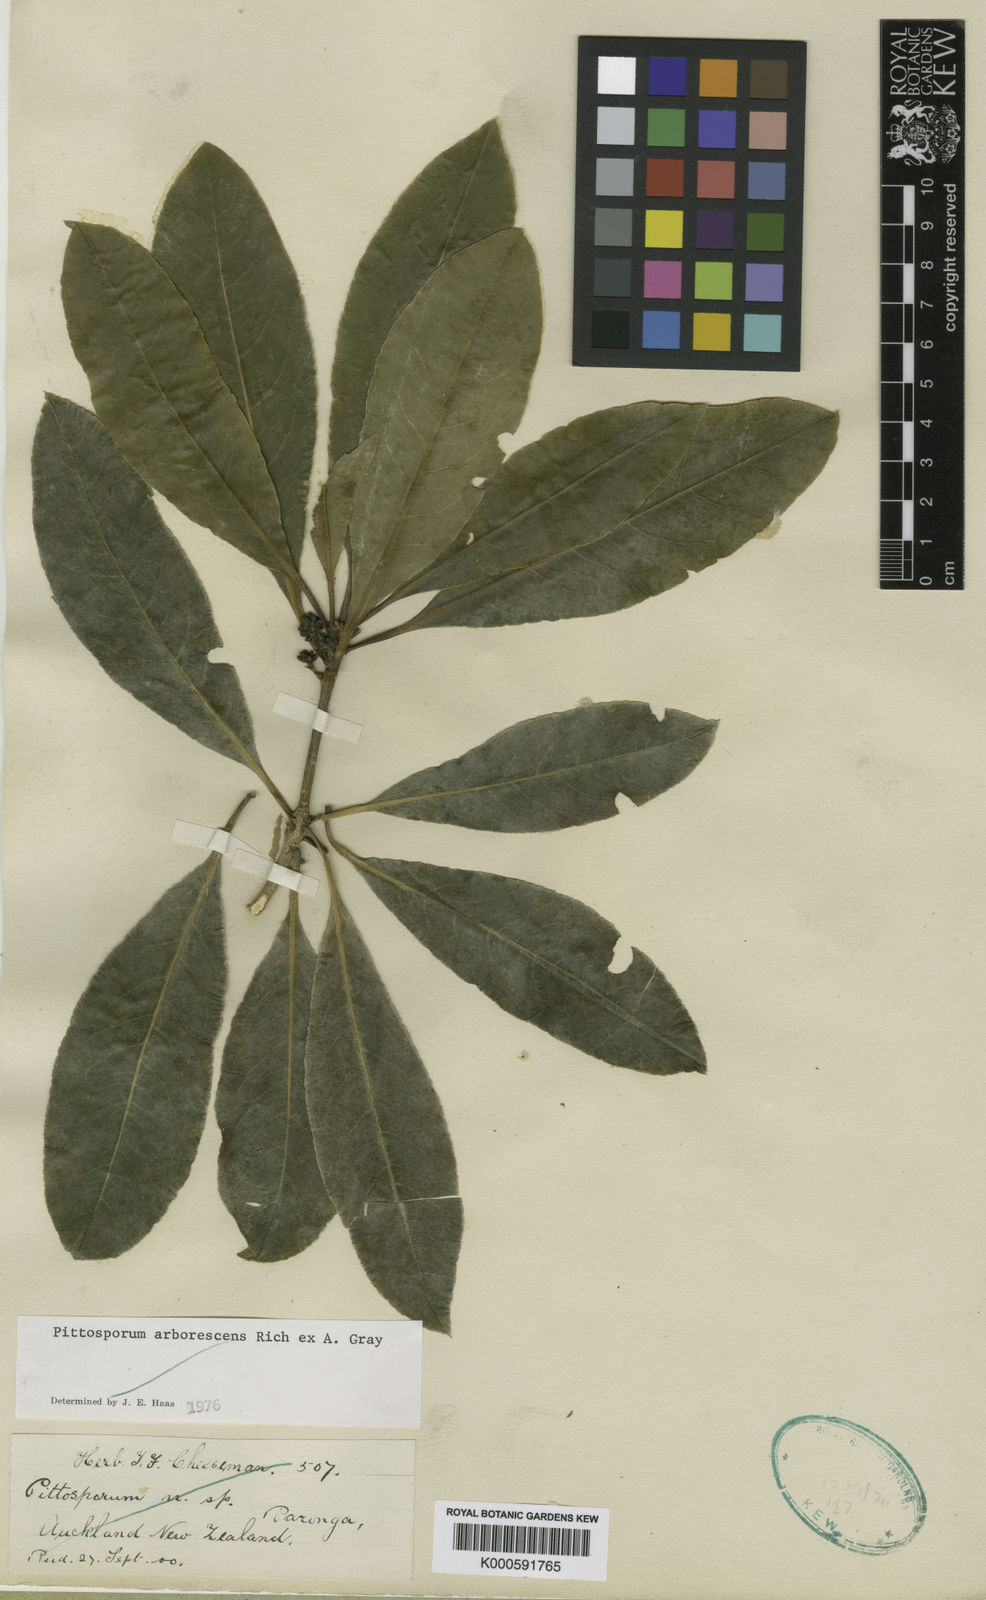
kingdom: Plantae
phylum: Tracheophyta
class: Magnoliopsida
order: Apiales
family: Pittosporaceae
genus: Pittosporum
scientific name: Pittosporum rarotongense
